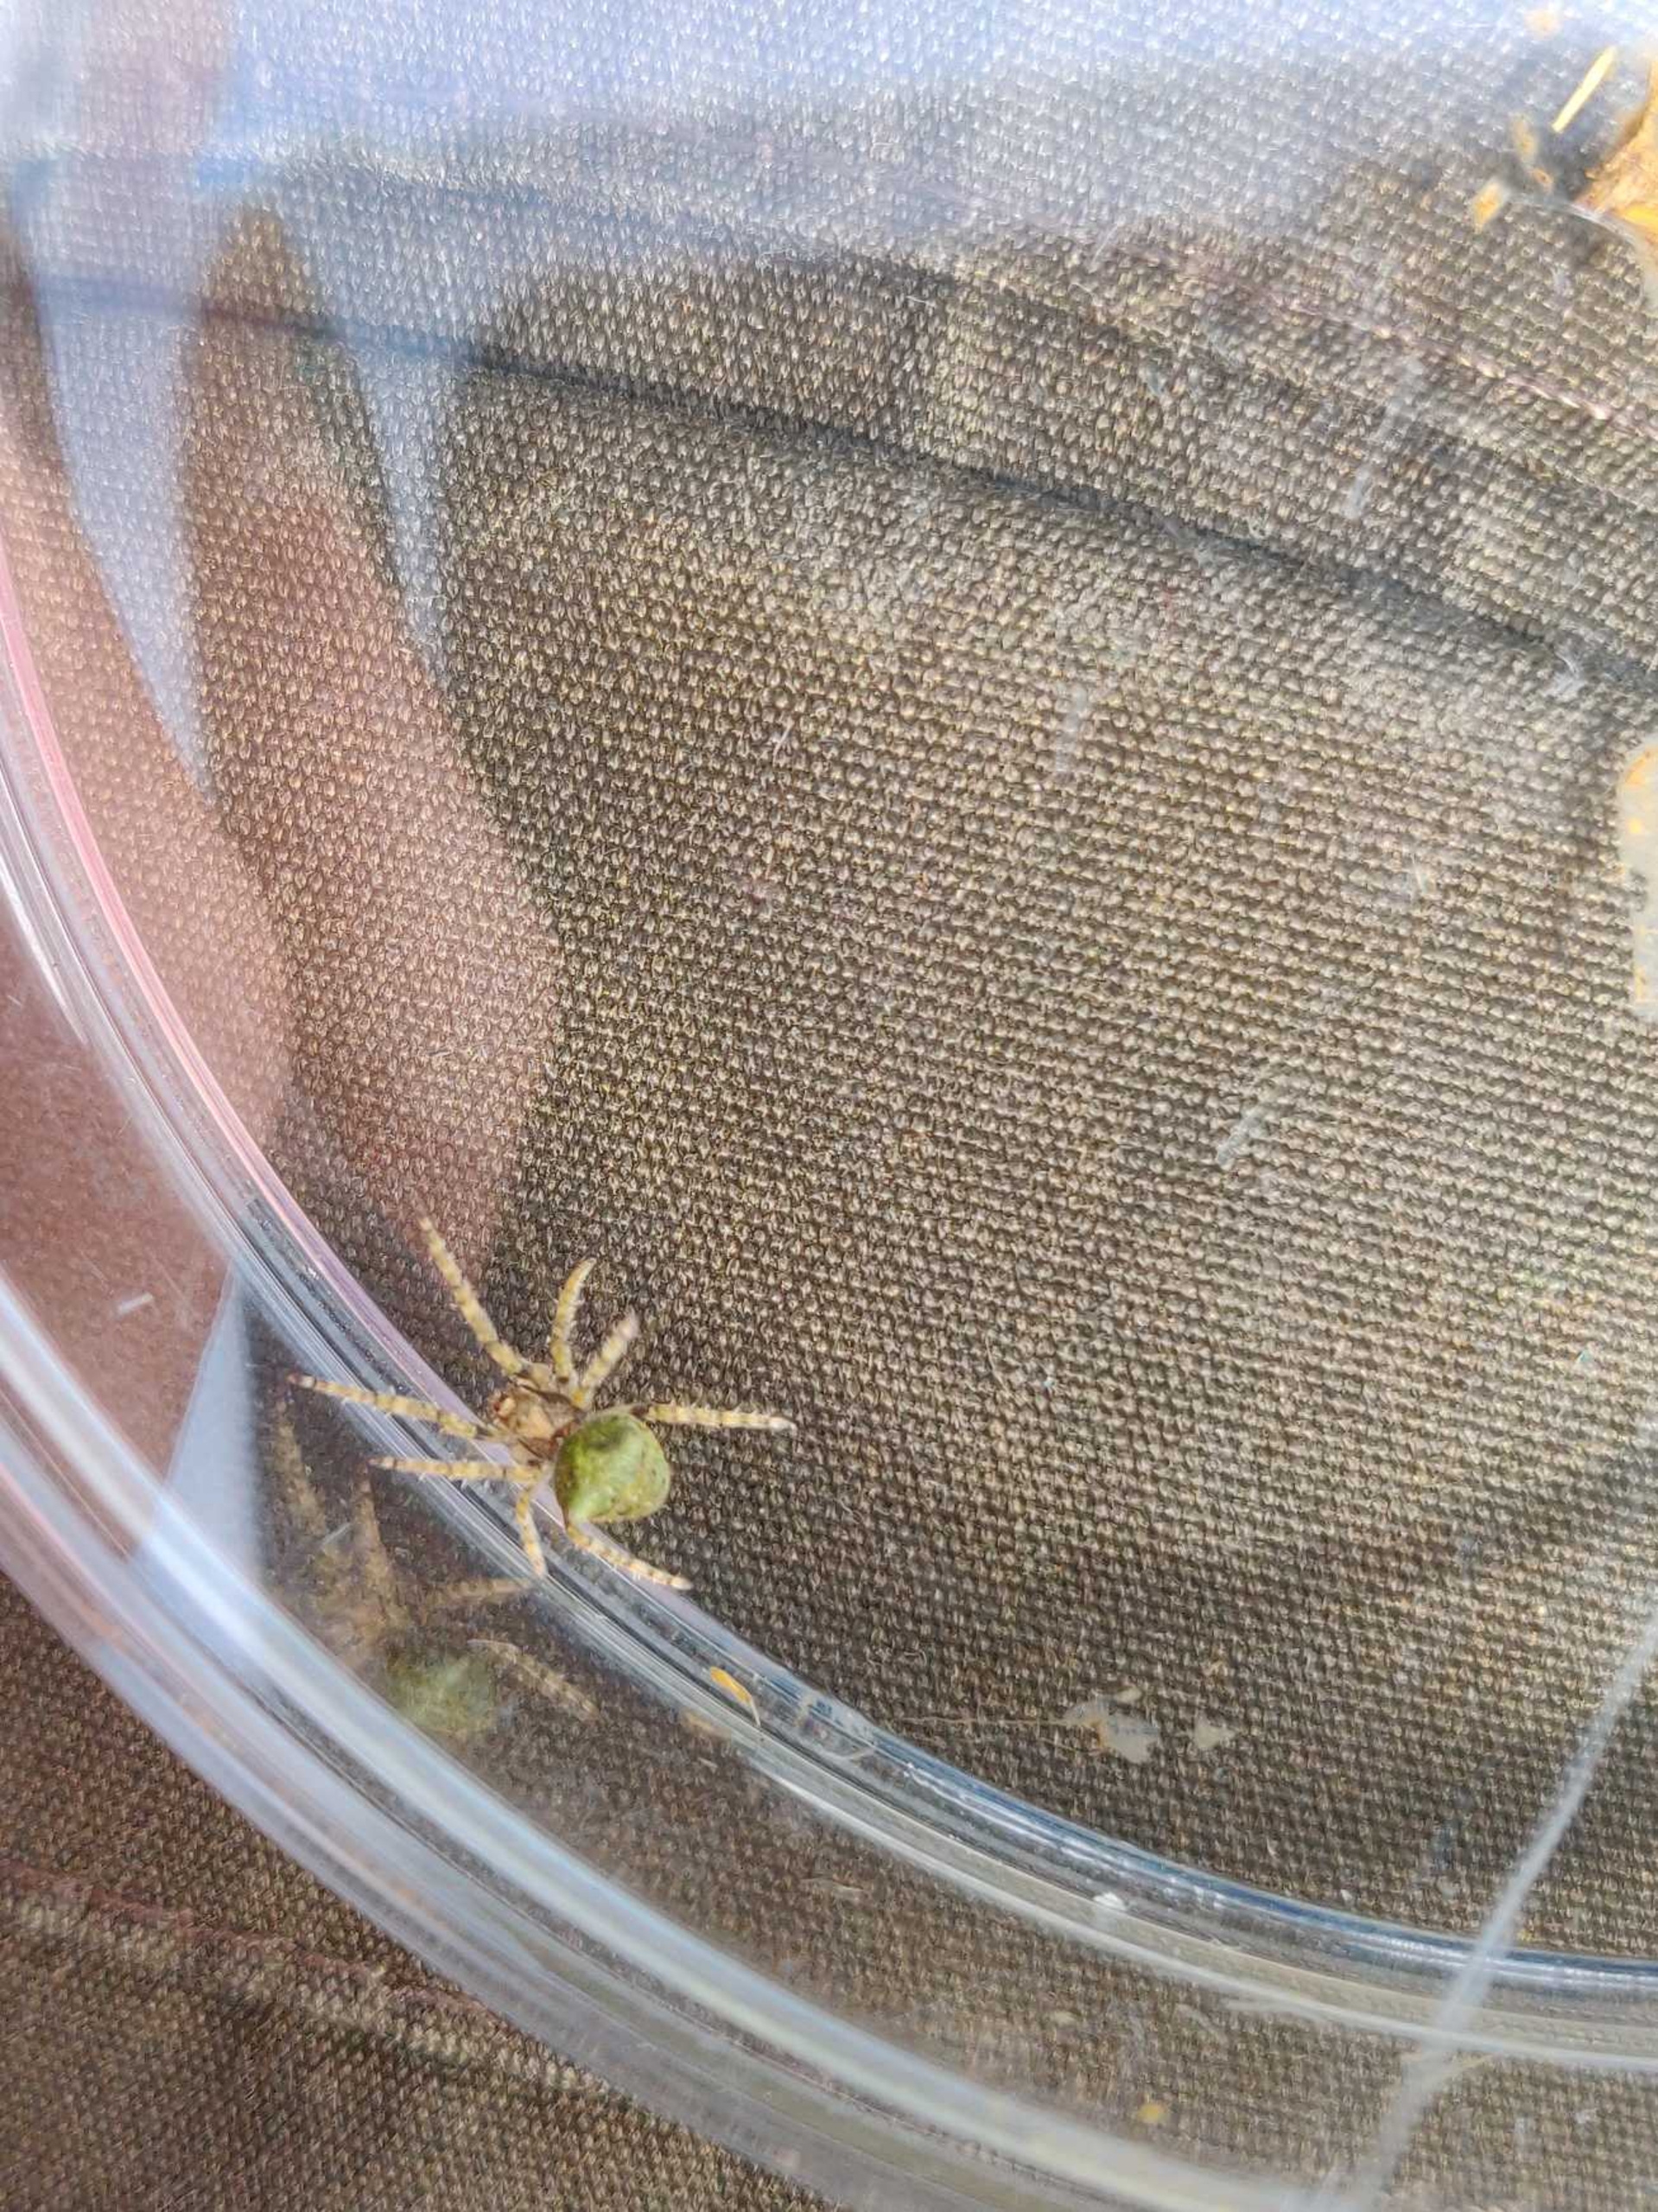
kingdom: Animalia
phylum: Arthropoda
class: Arachnida
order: Araneae
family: Araneidae
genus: Gibbaranea
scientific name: Gibbaranea gibbosa
